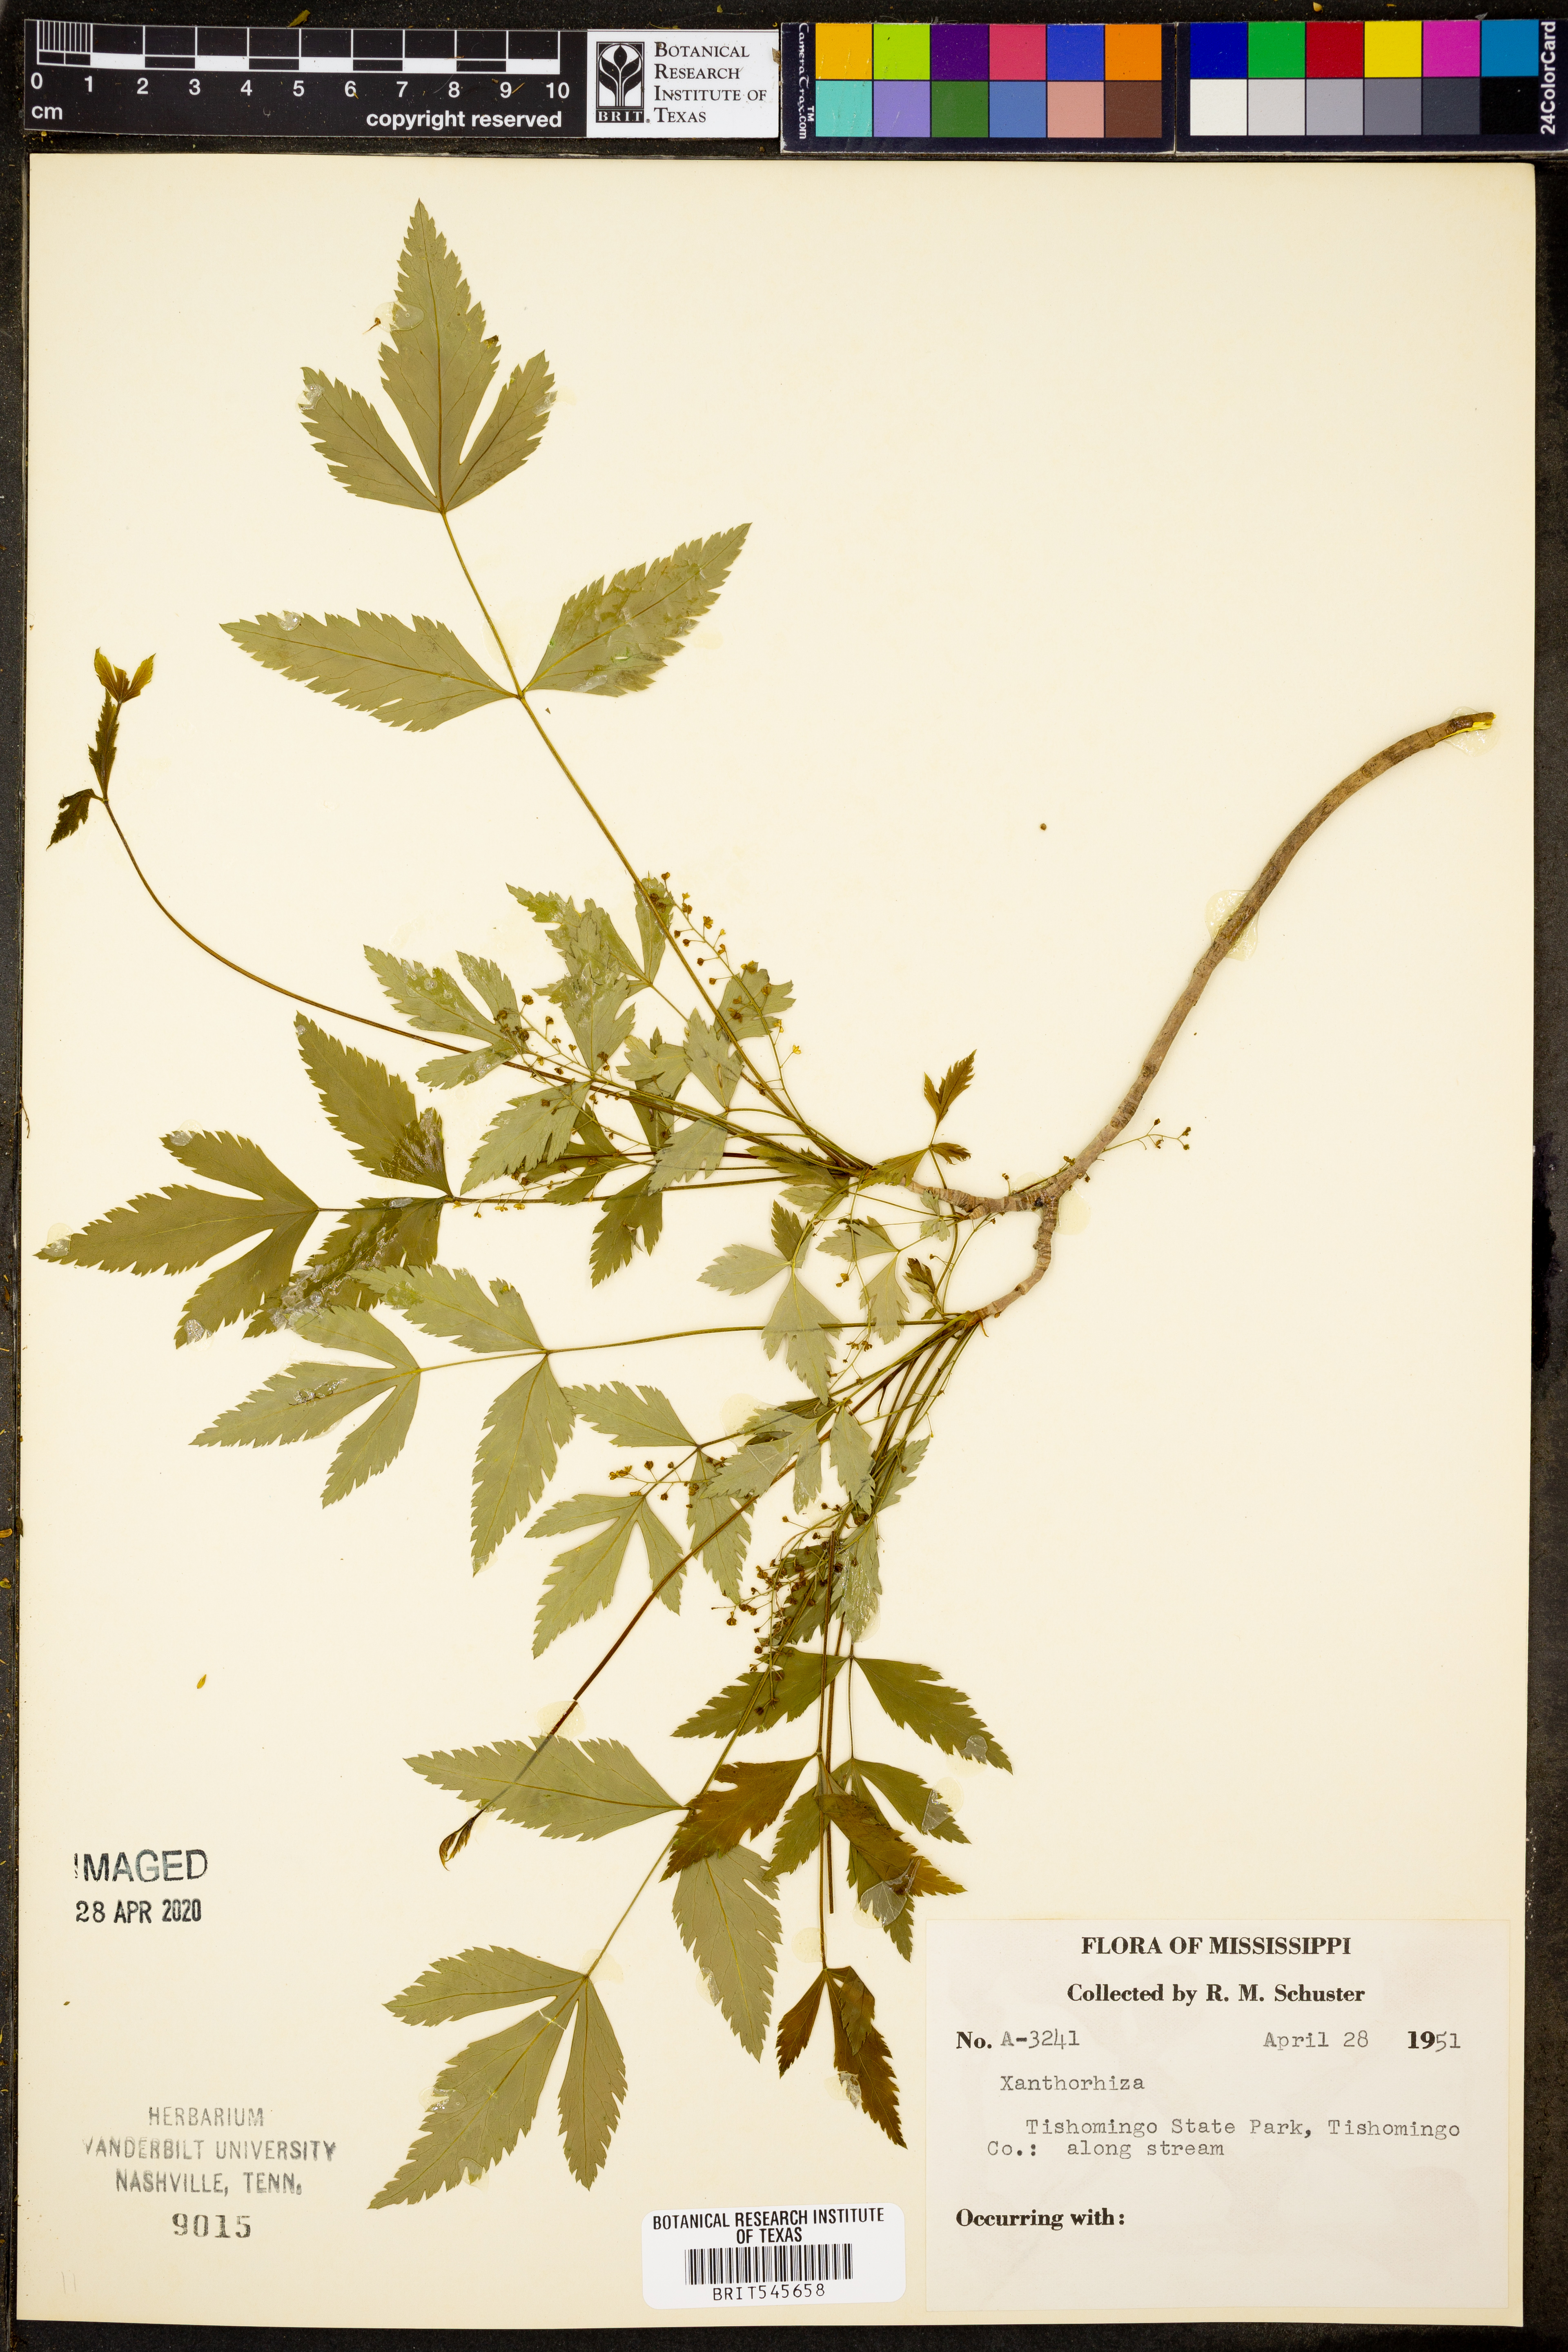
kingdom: Plantae
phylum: Tracheophyta
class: Magnoliopsida
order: Ranunculales
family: Ranunculaceae
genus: Xanthorhiza
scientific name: Xanthorhiza
